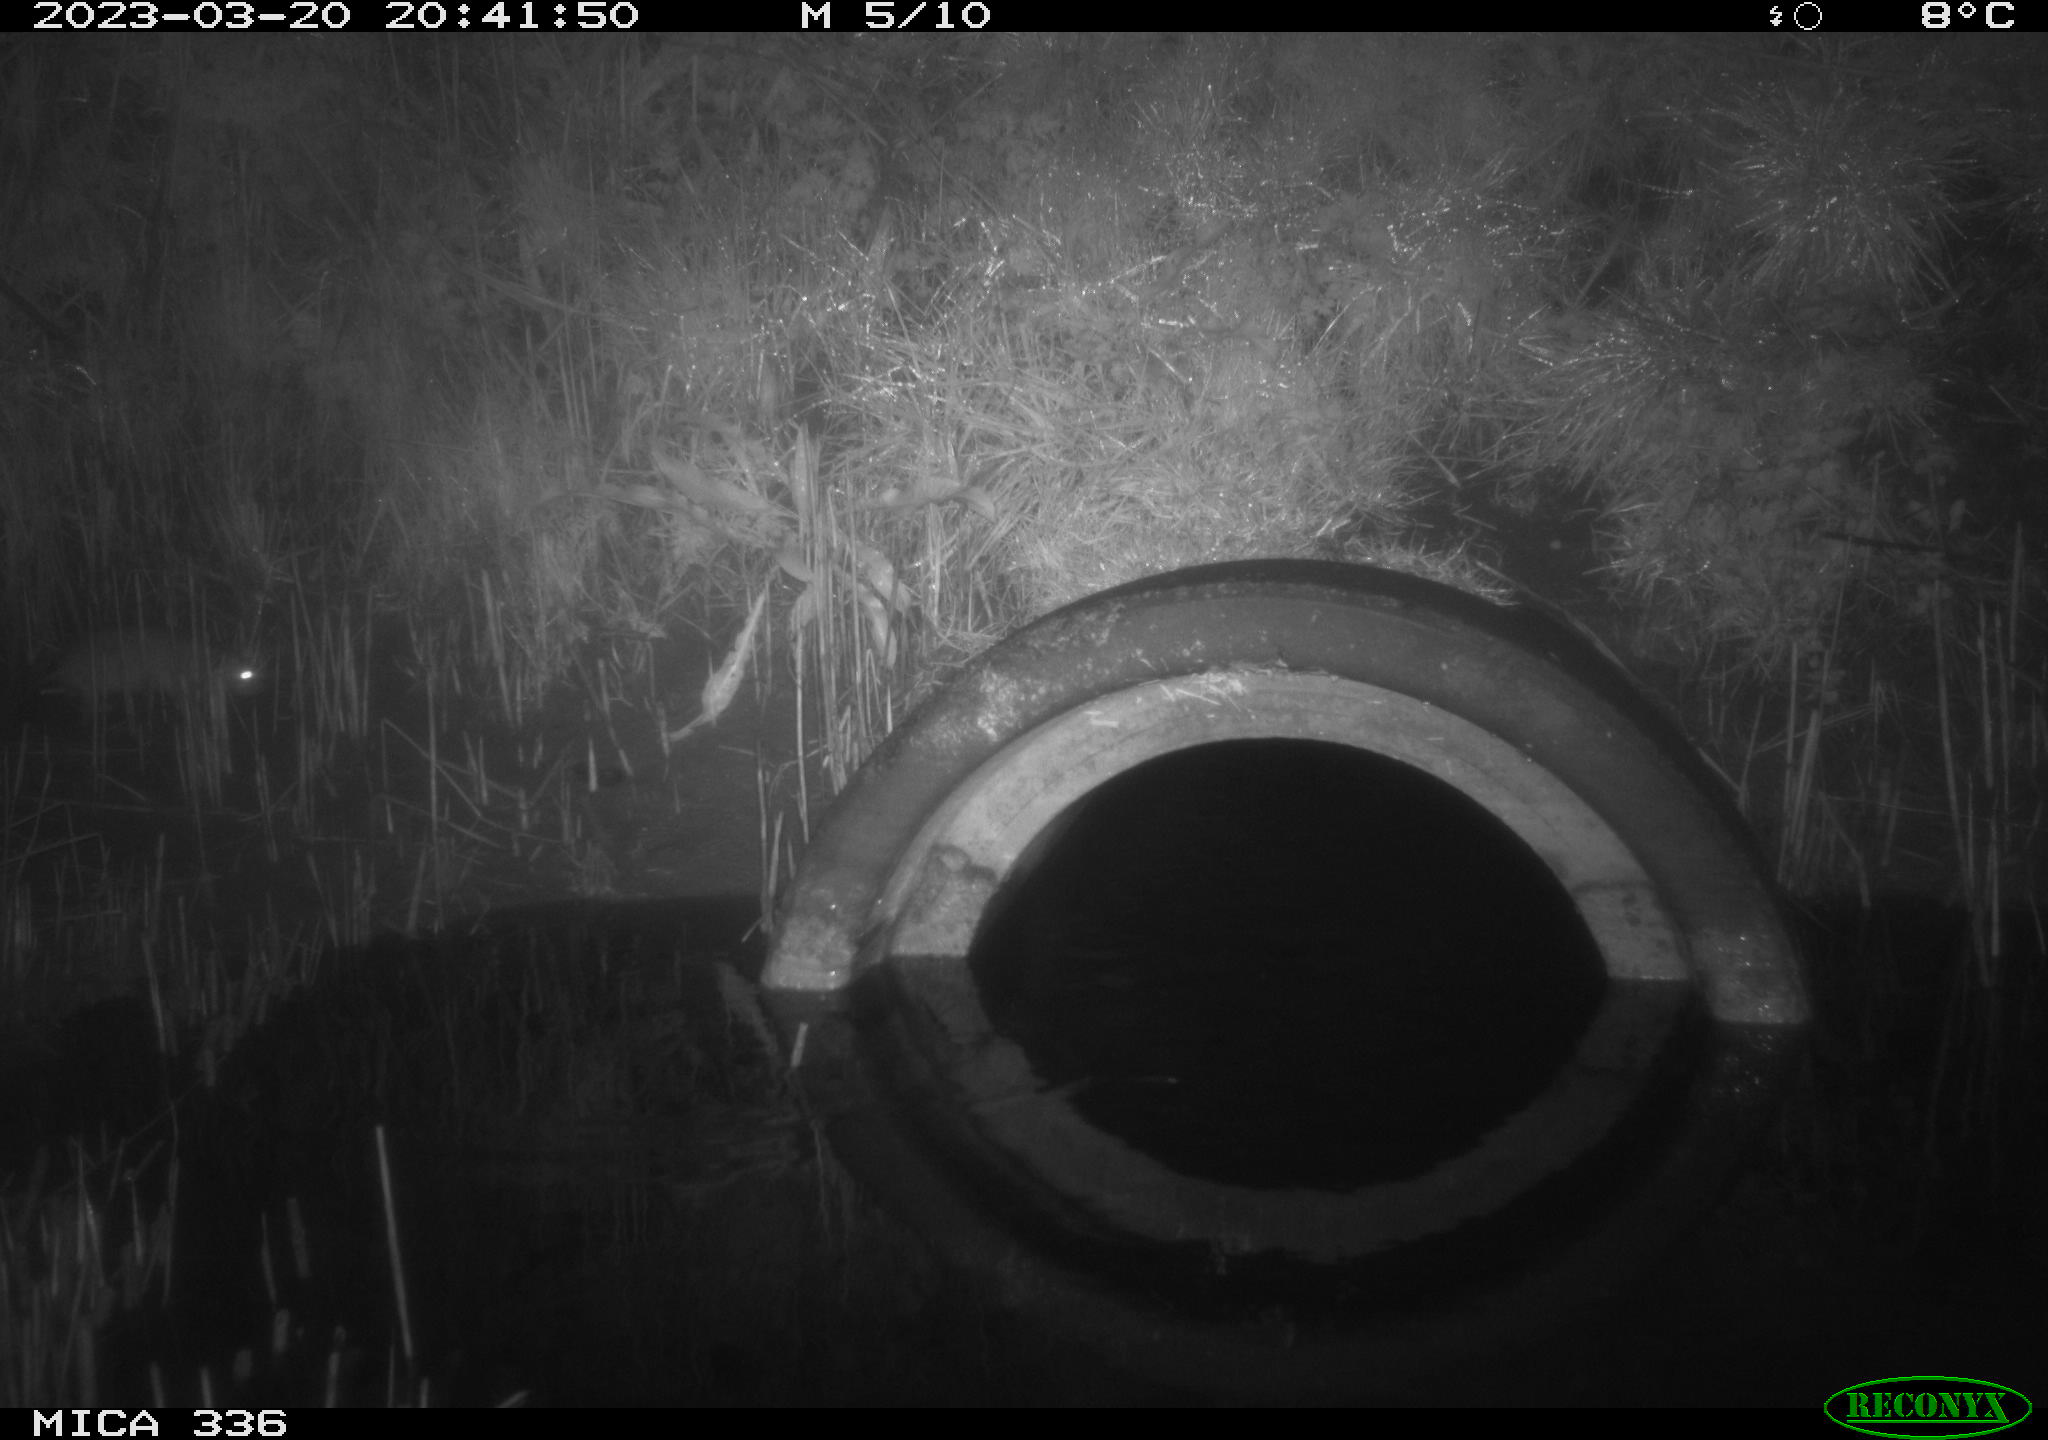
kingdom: Animalia
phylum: Chordata
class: Mammalia
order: Rodentia
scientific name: Rodentia
